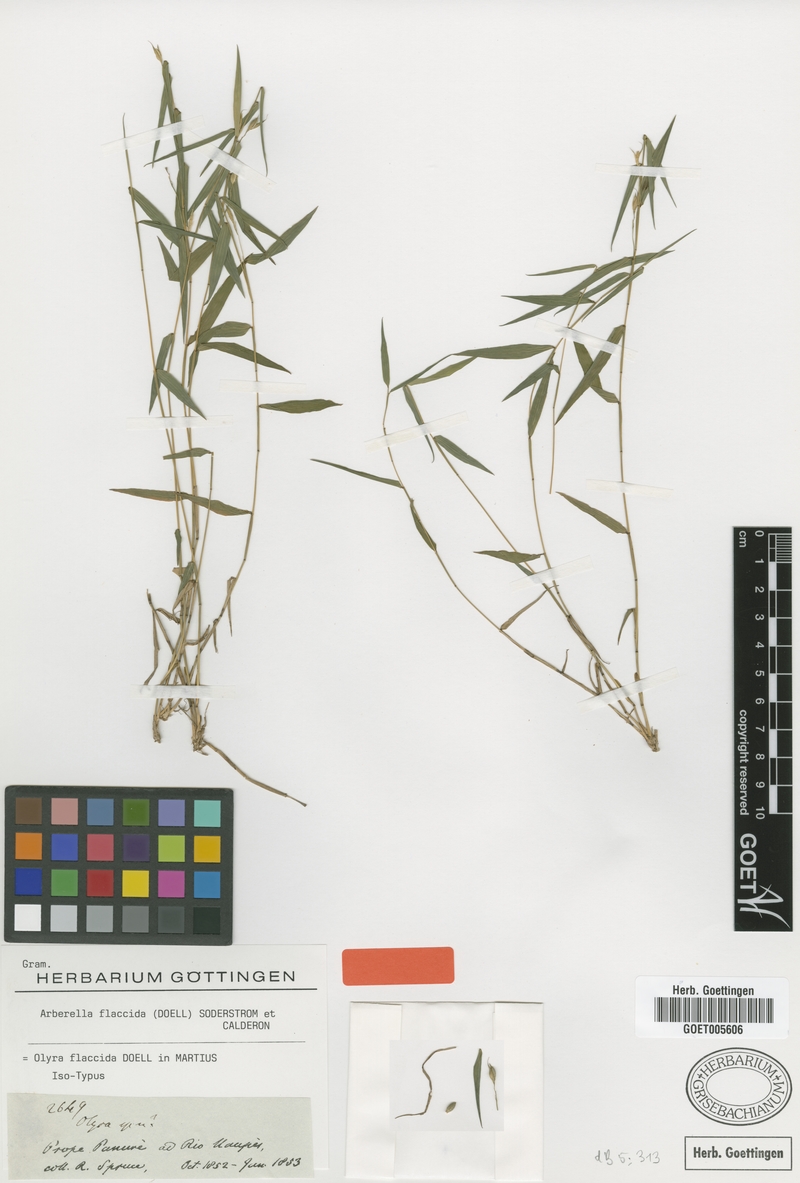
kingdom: Plantae
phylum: Tracheophyta
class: Liliopsida
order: Poales
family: Poaceae
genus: Arberella
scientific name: Arberella flaccida
